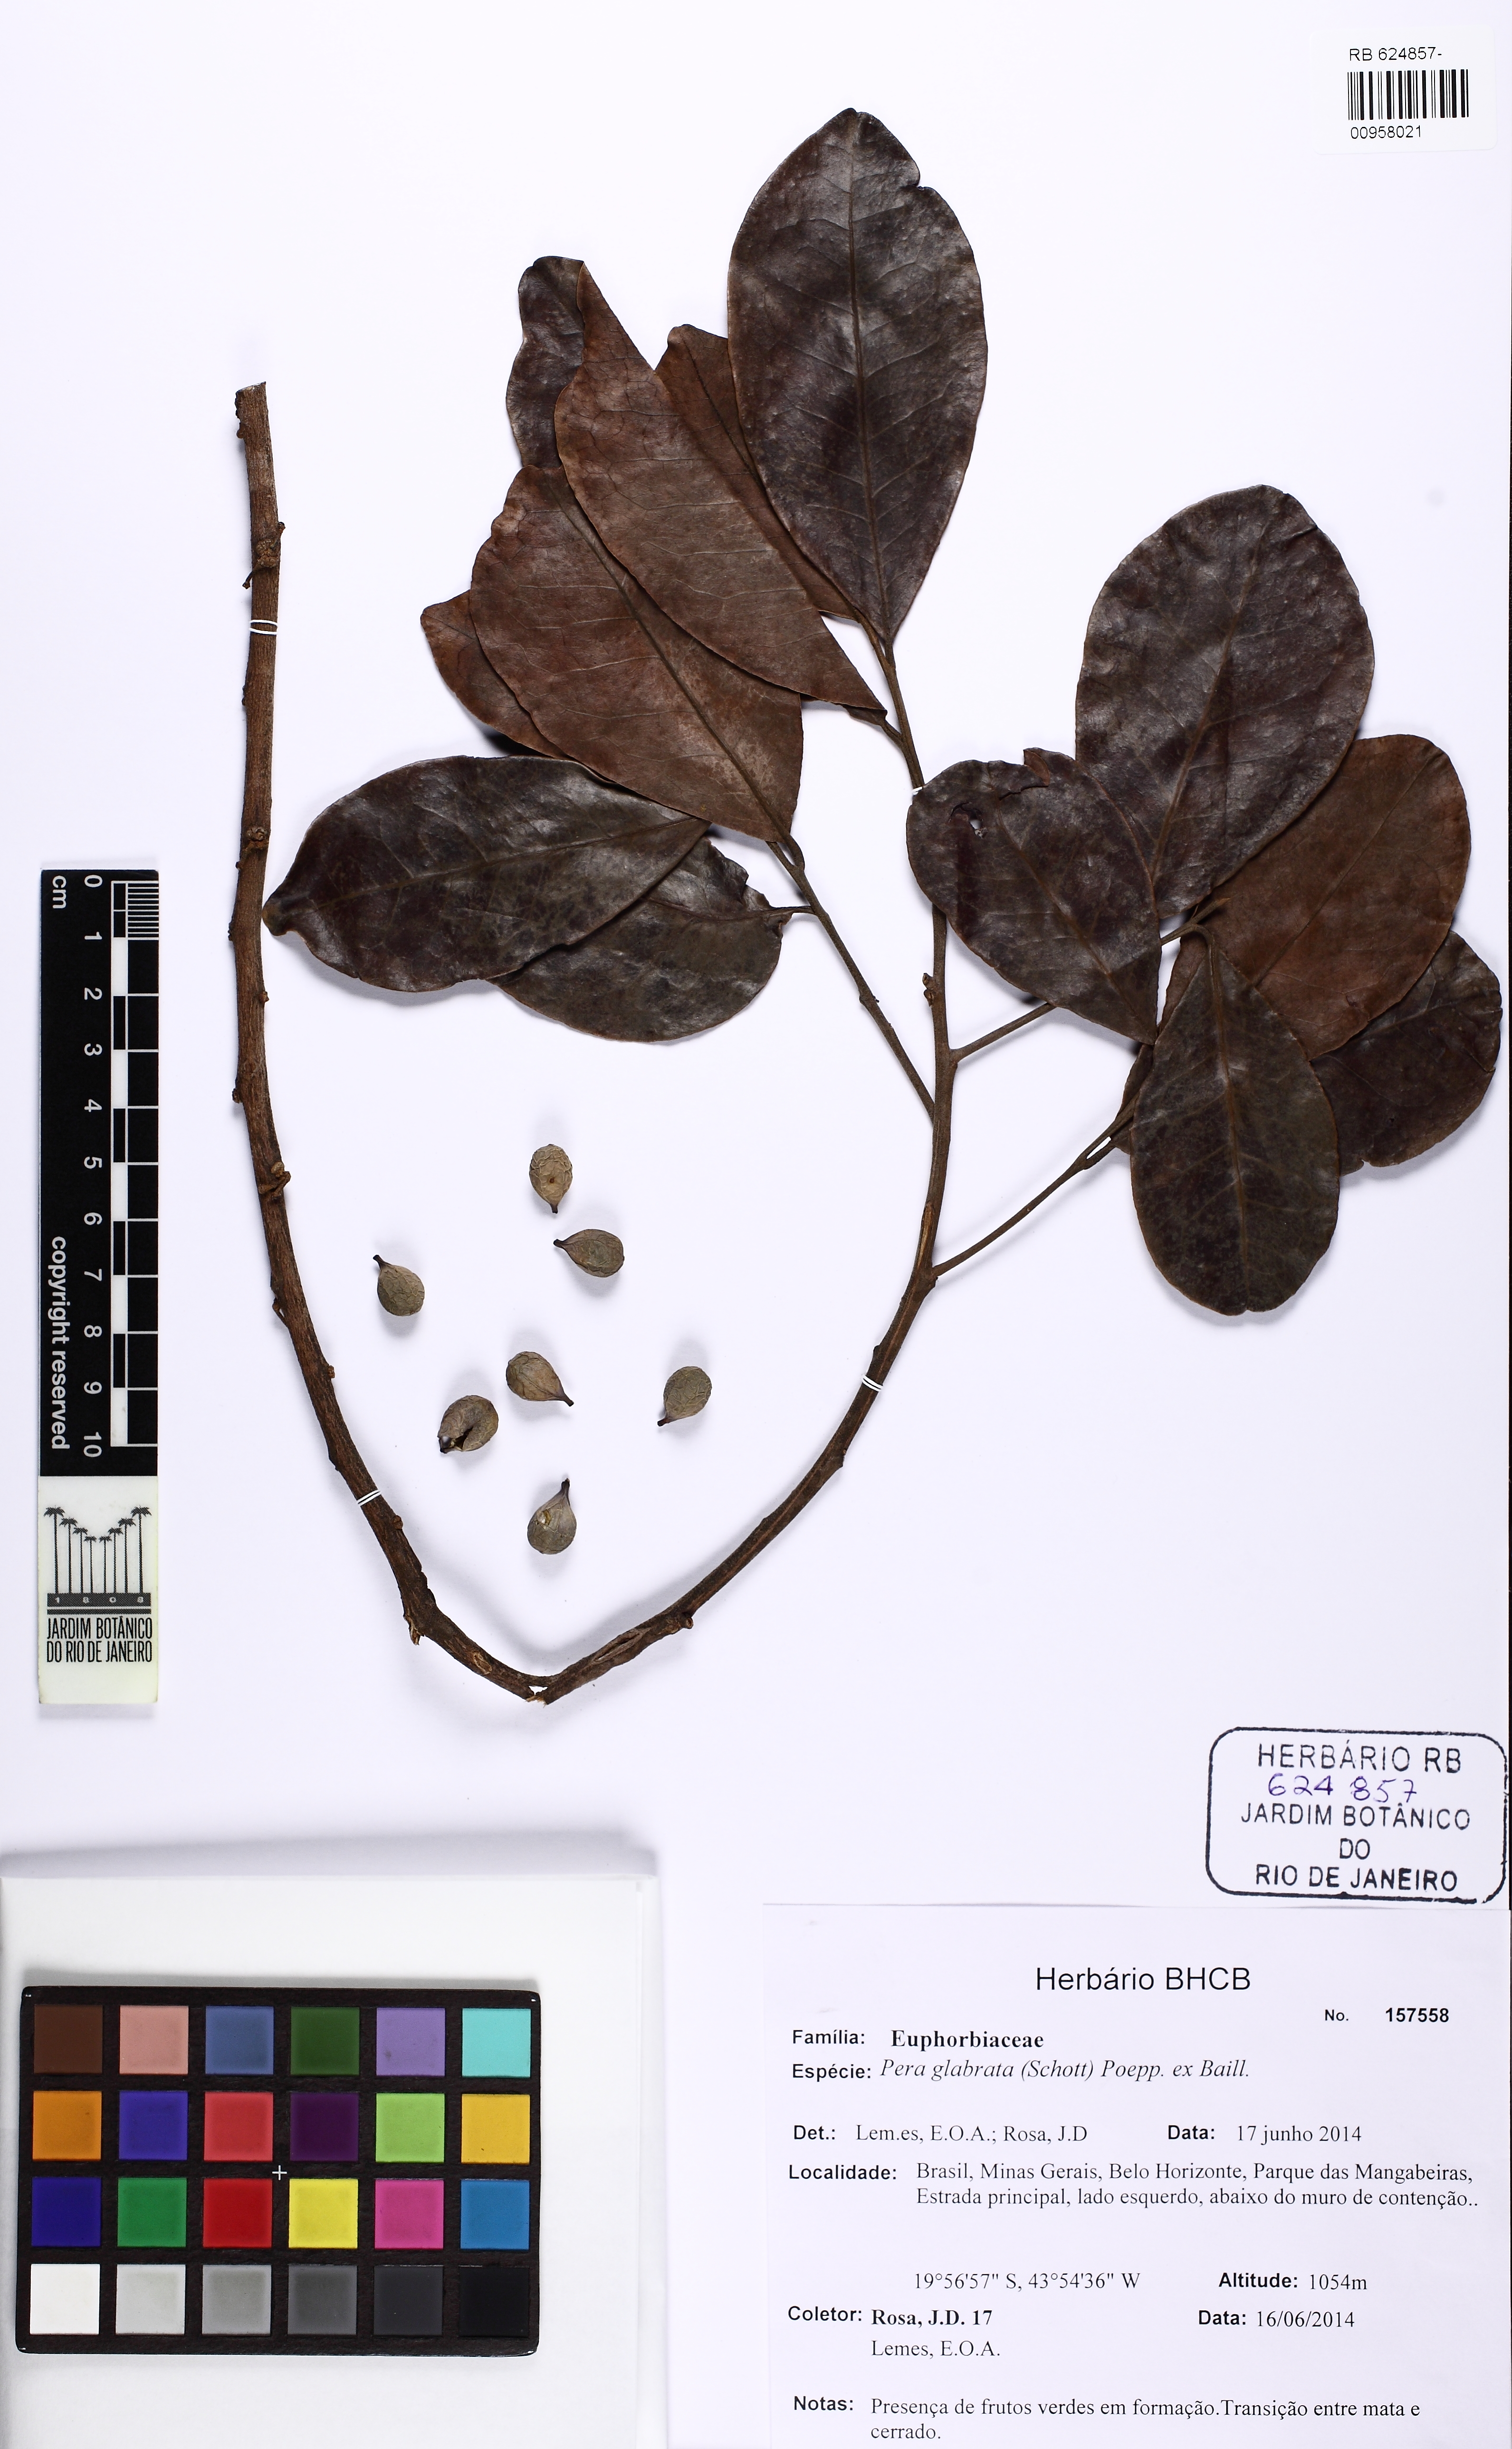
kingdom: Plantae
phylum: Tracheophyta
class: Magnoliopsida
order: Malpighiales
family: Peraceae
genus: Pera
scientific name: Pera glabrata
